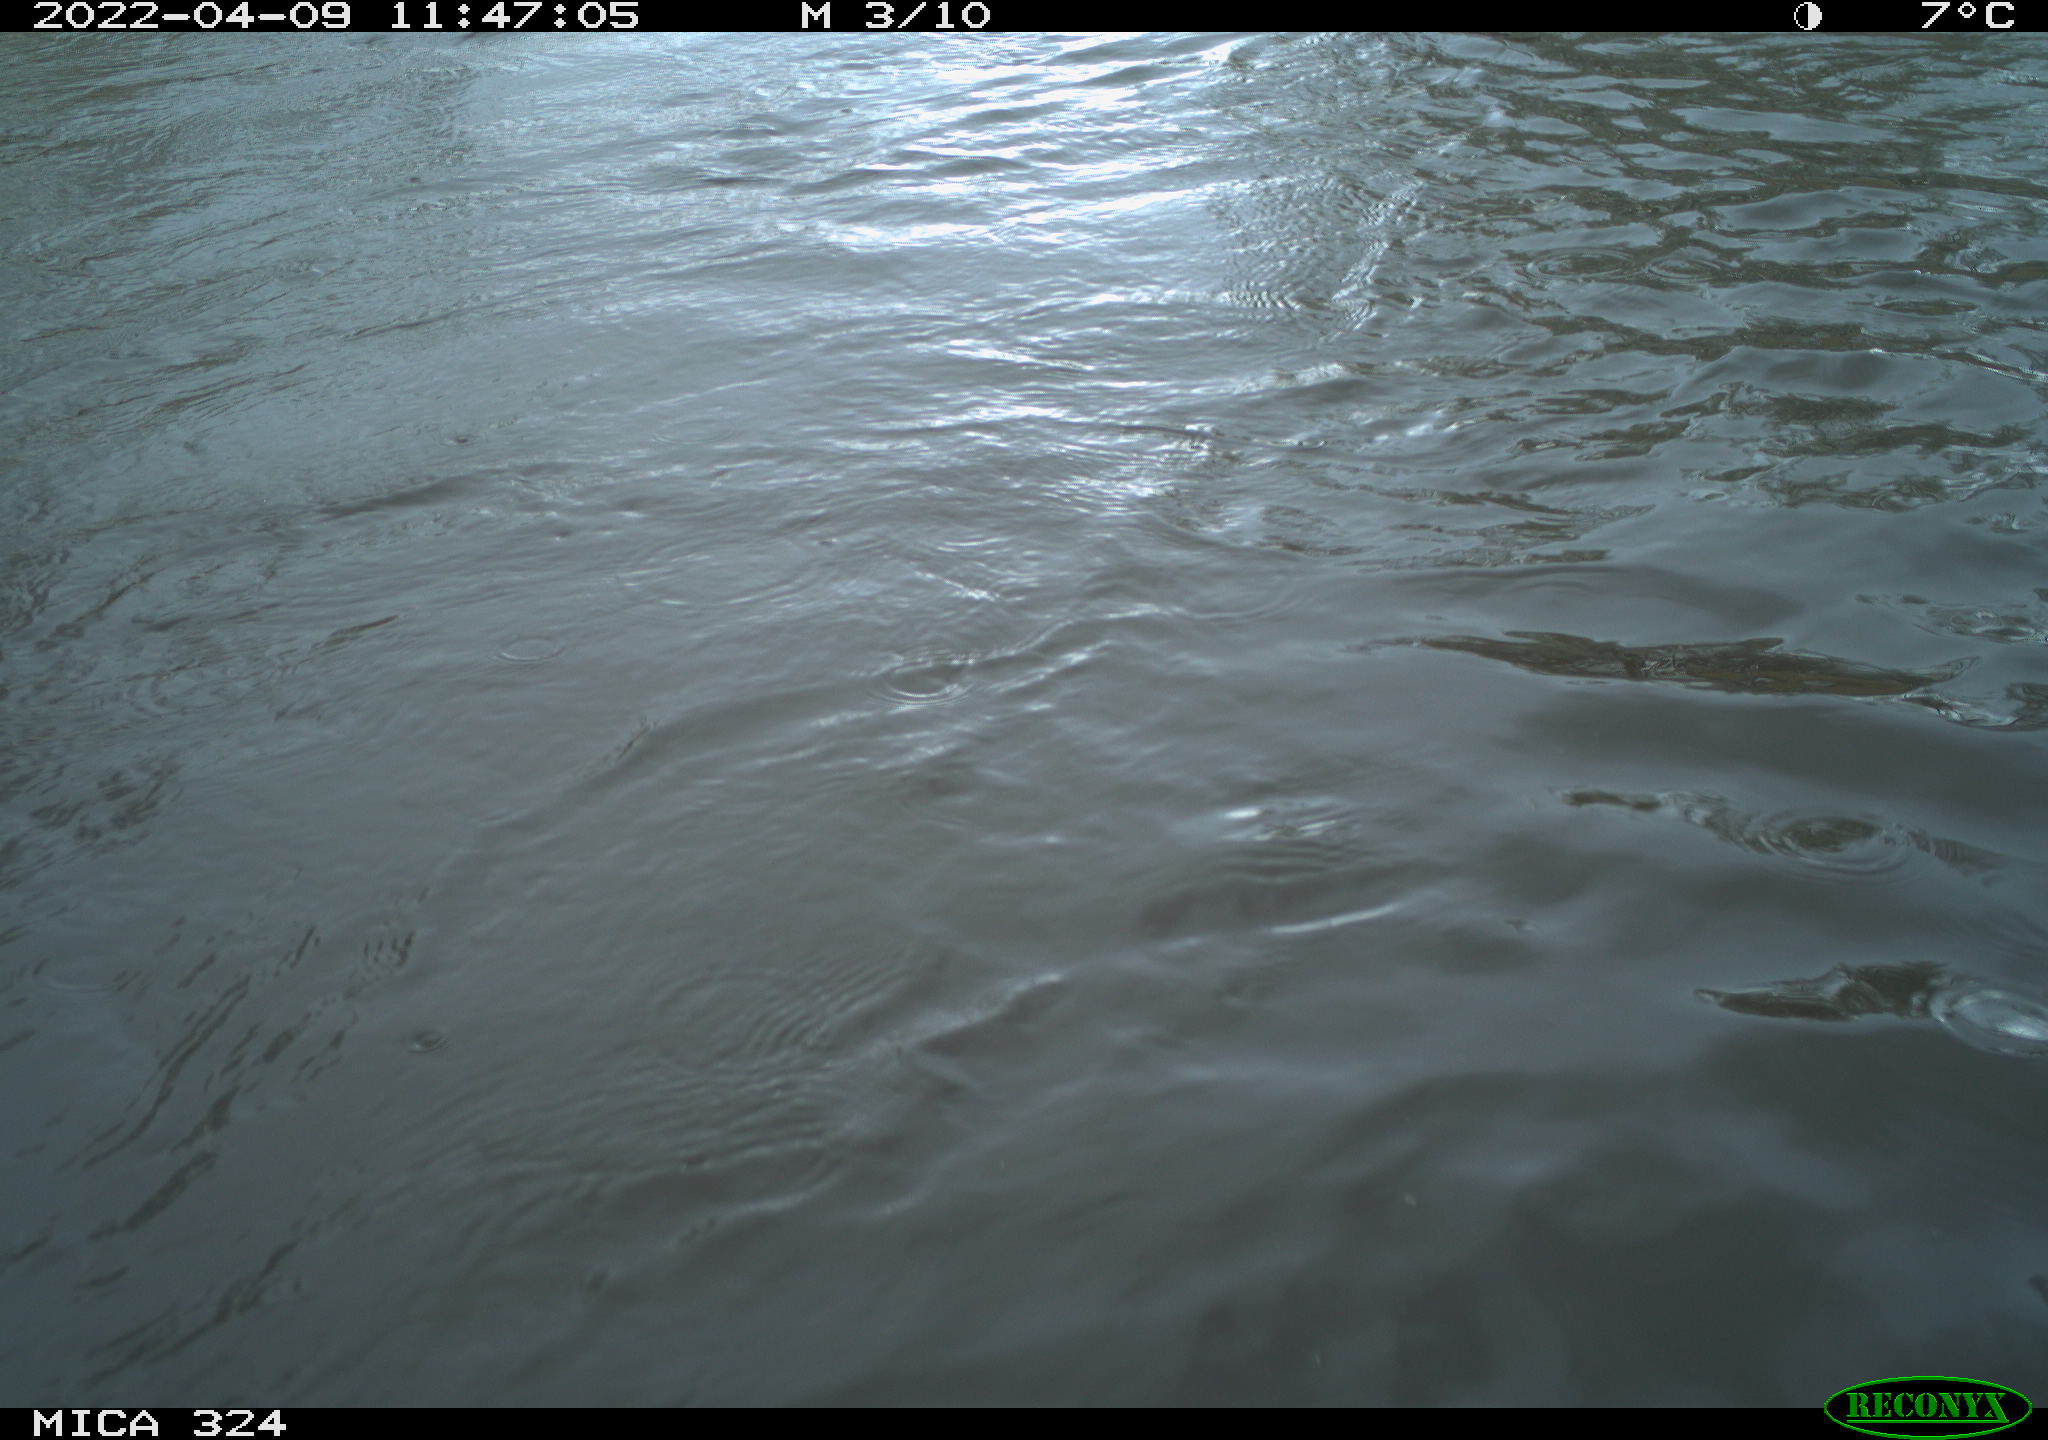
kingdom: Animalia
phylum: Chordata
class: Mammalia
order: Rodentia
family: Cricetidae
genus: Ondatra
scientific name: Ondatra zibethicus
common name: Muskrat
